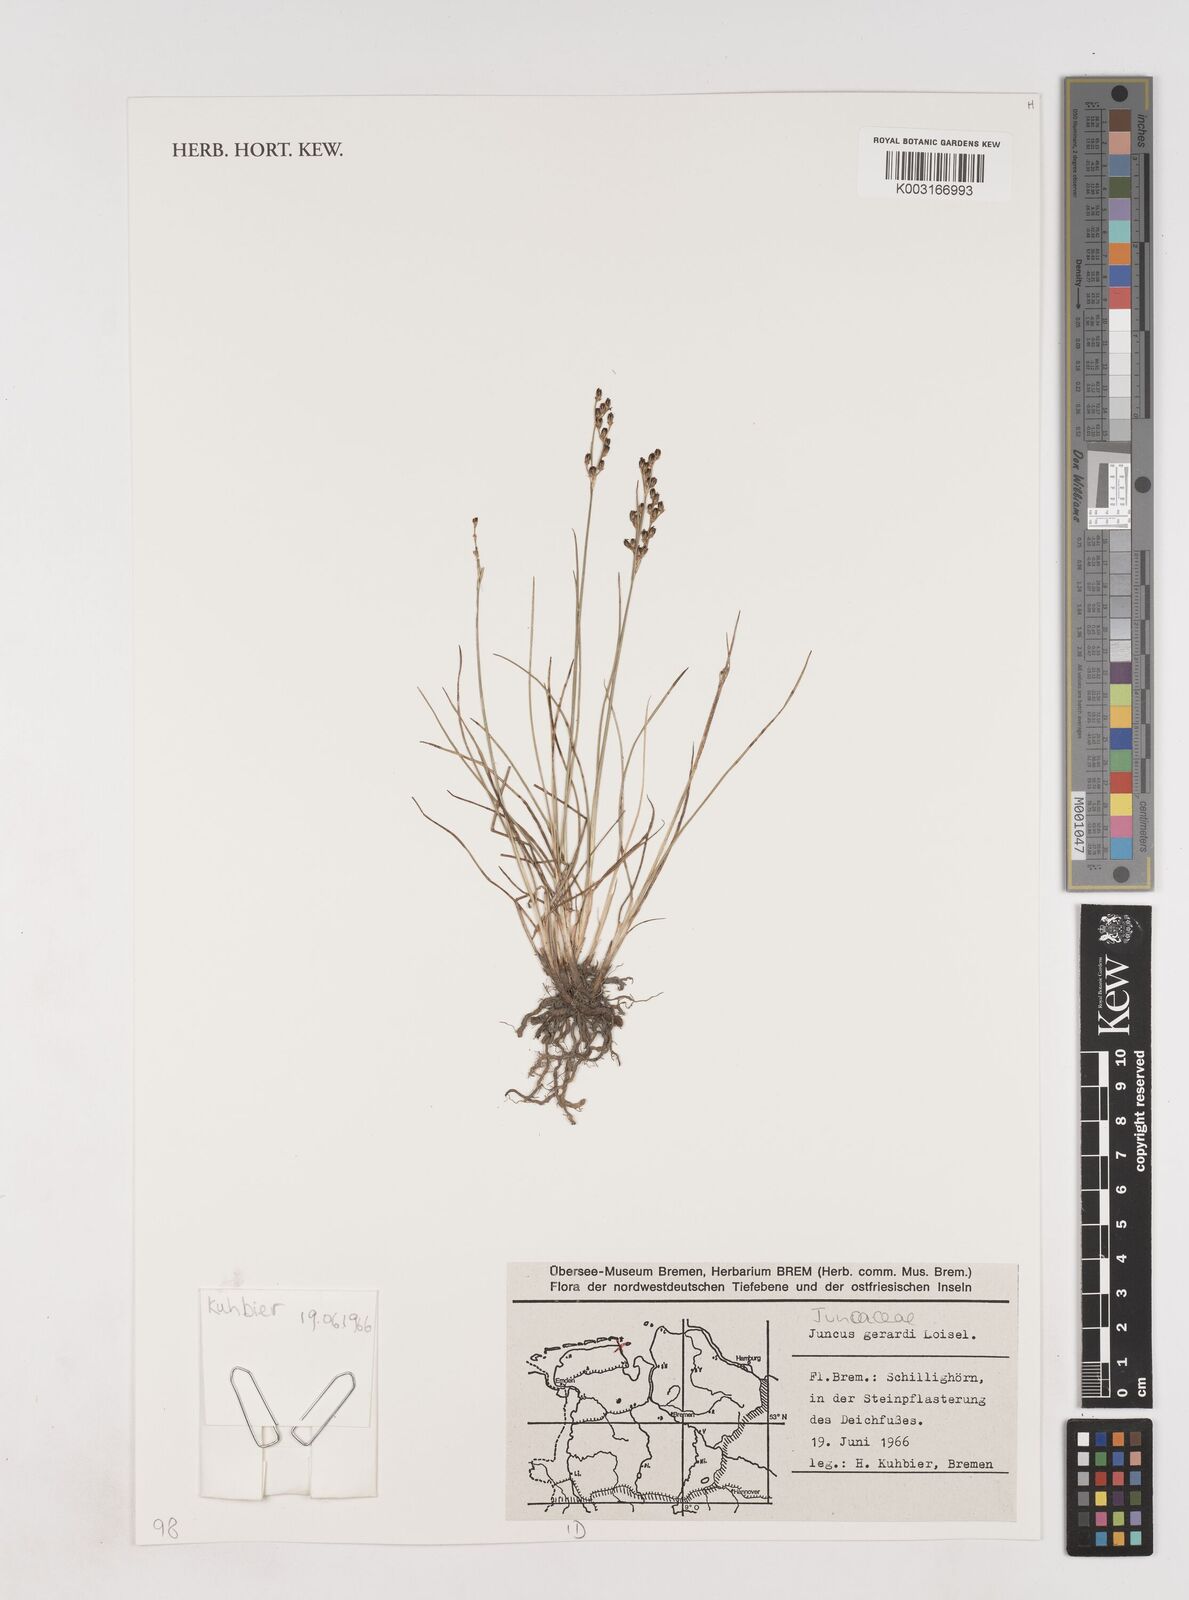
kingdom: Plantae
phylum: Tracheophyta
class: Liliopsida
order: Poales
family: Juncaceae
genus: Juncus
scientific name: Juncus gerardi
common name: Saltmarsh rush
